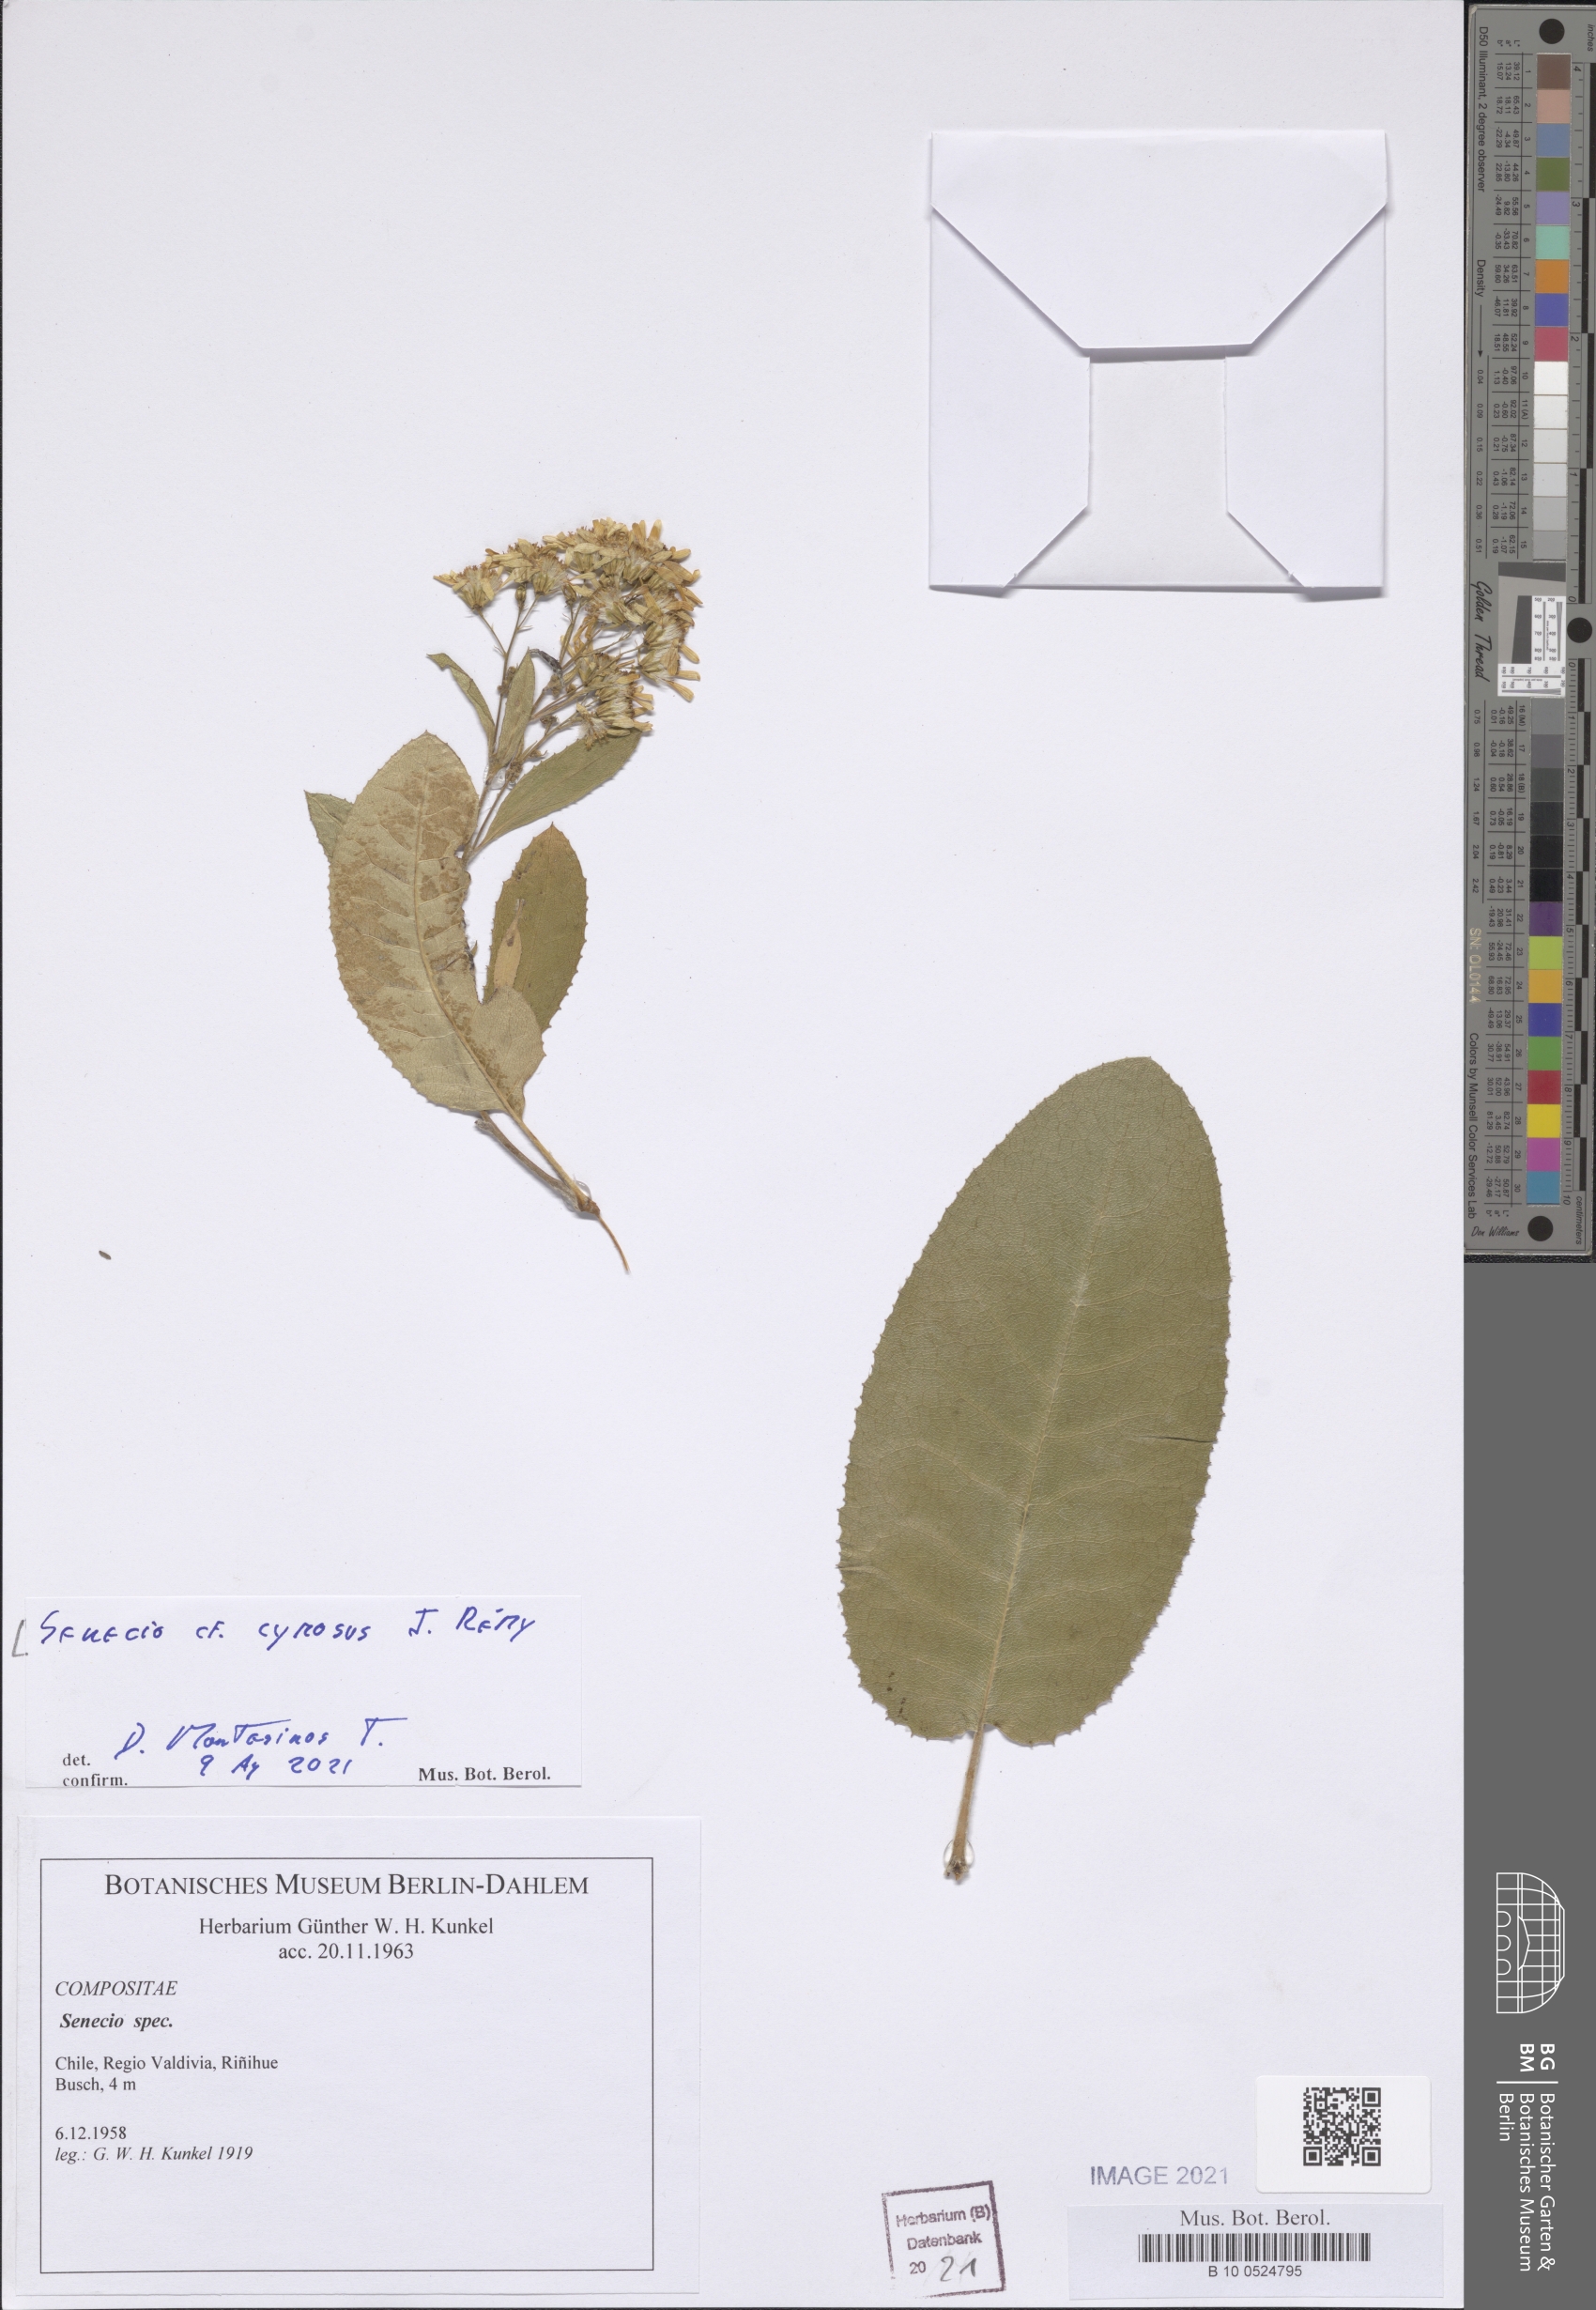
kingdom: Plantae
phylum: Tracheophyta
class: Magnoliopsida
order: Asterales
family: Asteraceae
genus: Acrisione
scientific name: Acrisione cymosa
